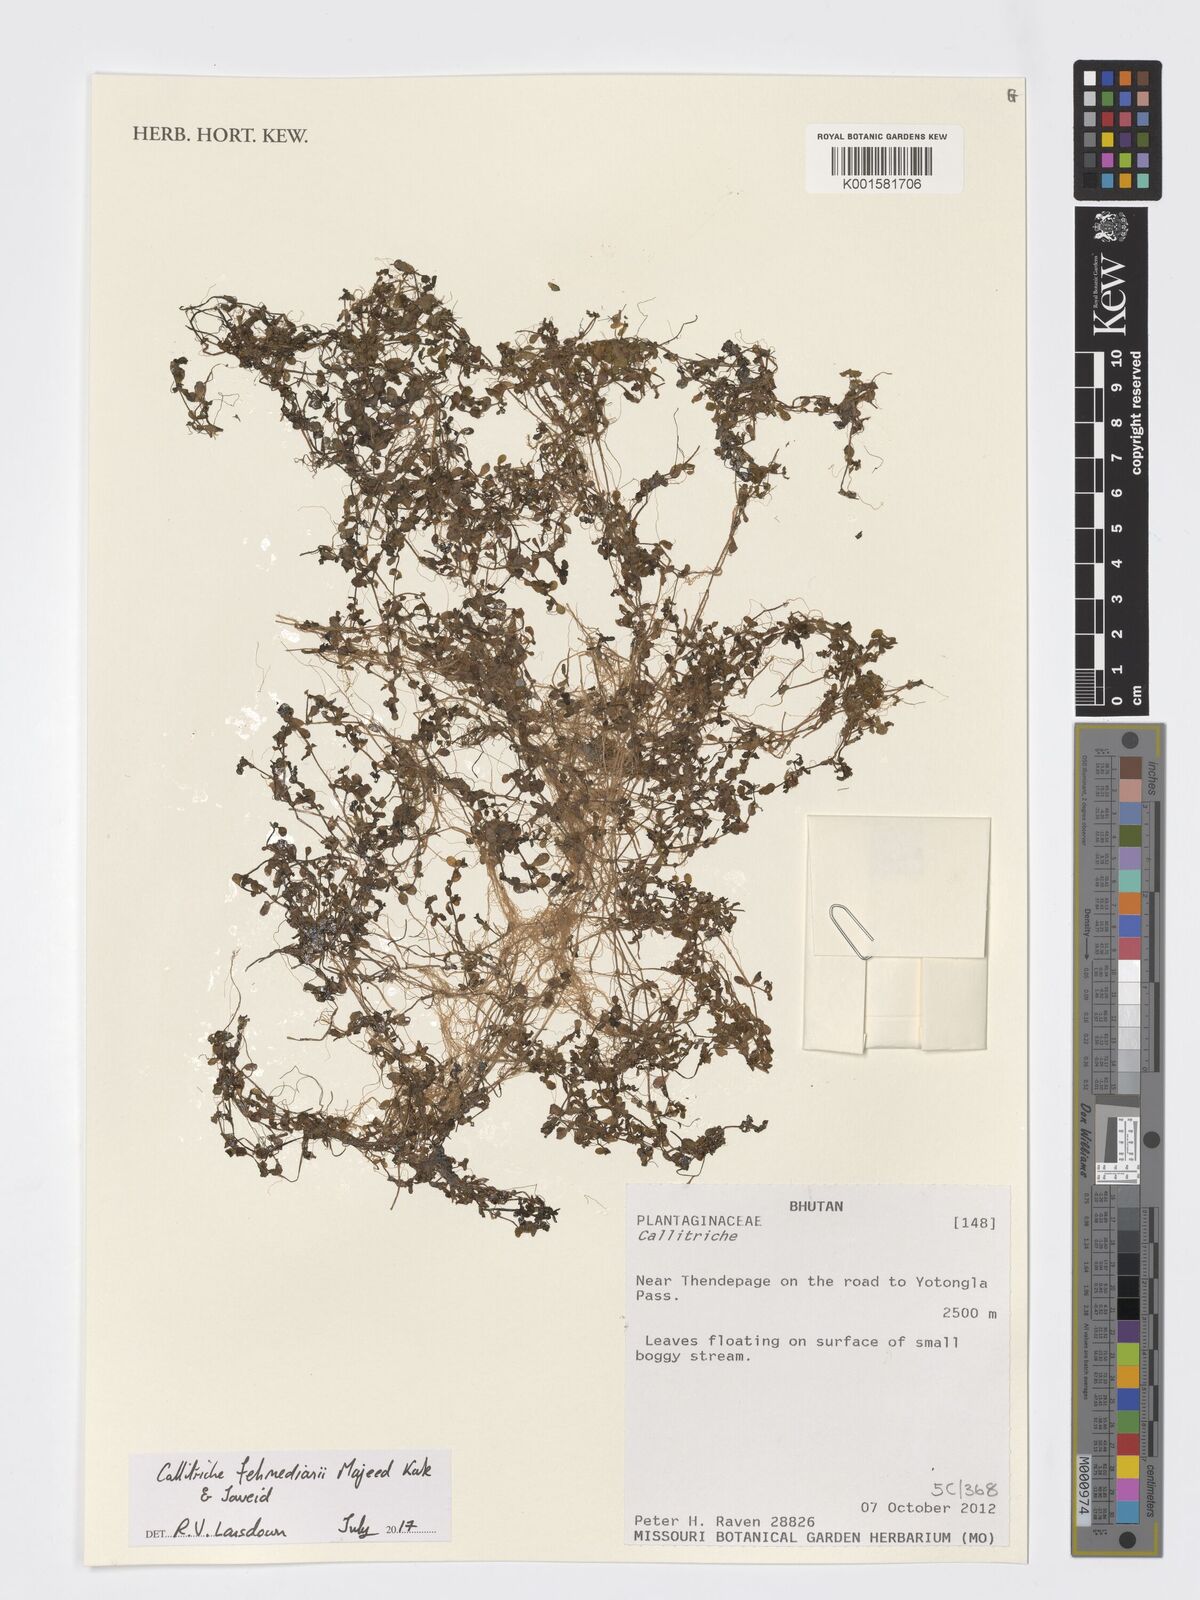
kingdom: Plantae
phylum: Tracheophyta
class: Magnoliopsida
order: Lamiales
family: Plantaginaceae
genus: Callitriche
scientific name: Callitriche fehmedianii
